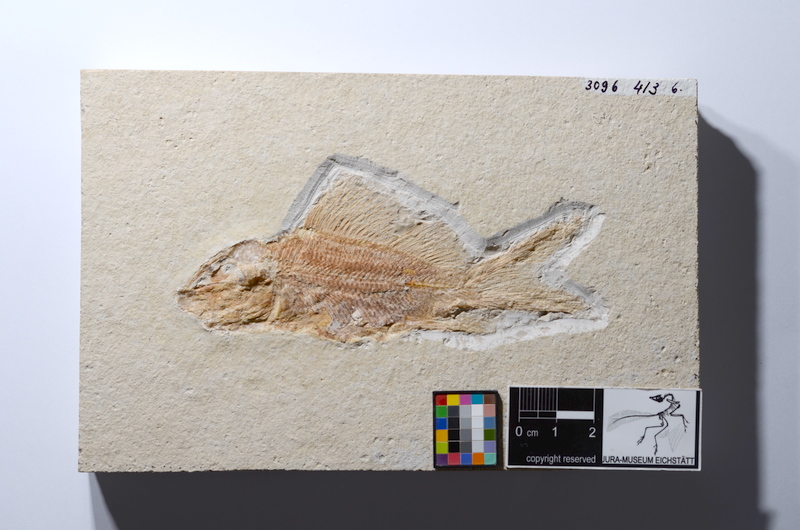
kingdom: Animalia
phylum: Chordata
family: Macrosemiidae
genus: Propterus
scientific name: Propterus elongatus
